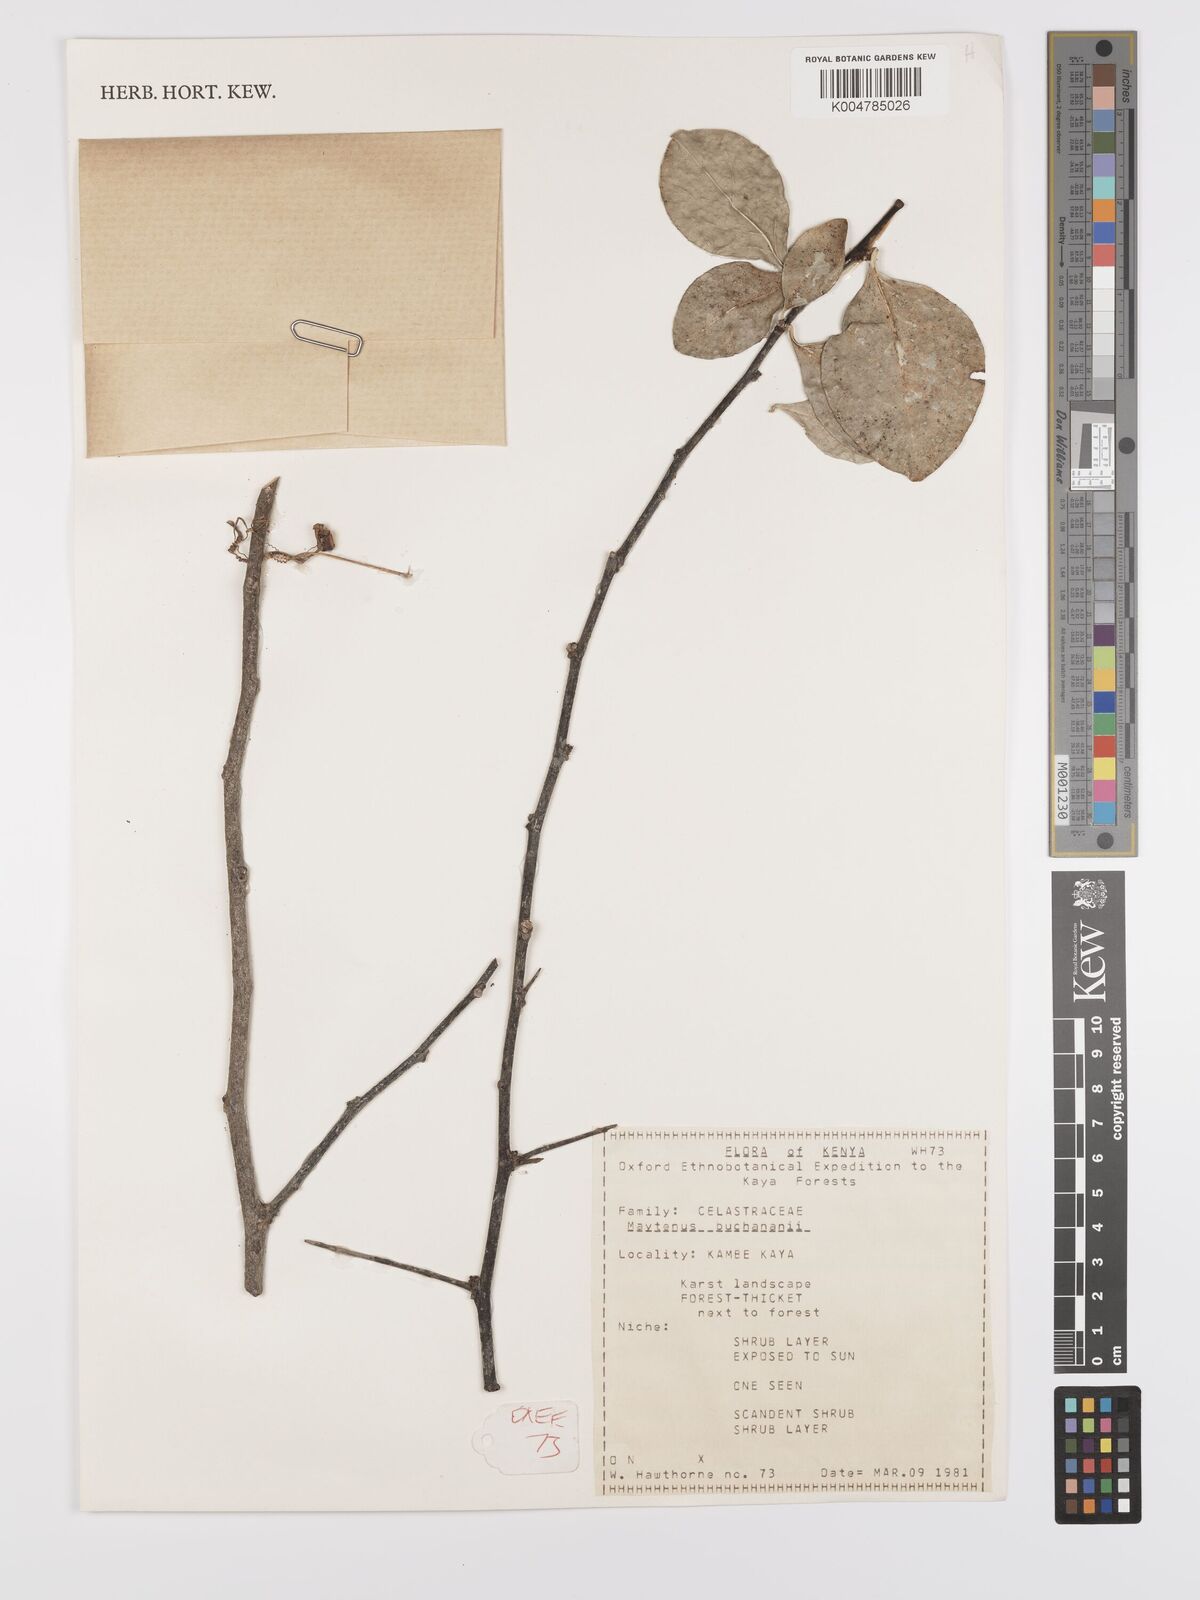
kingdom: Plantae
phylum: Tracheophyta
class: Magnoliopsida
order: Celastrales
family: Celastraceae
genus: Gymnosporia
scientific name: Gymnosporia buchananii
